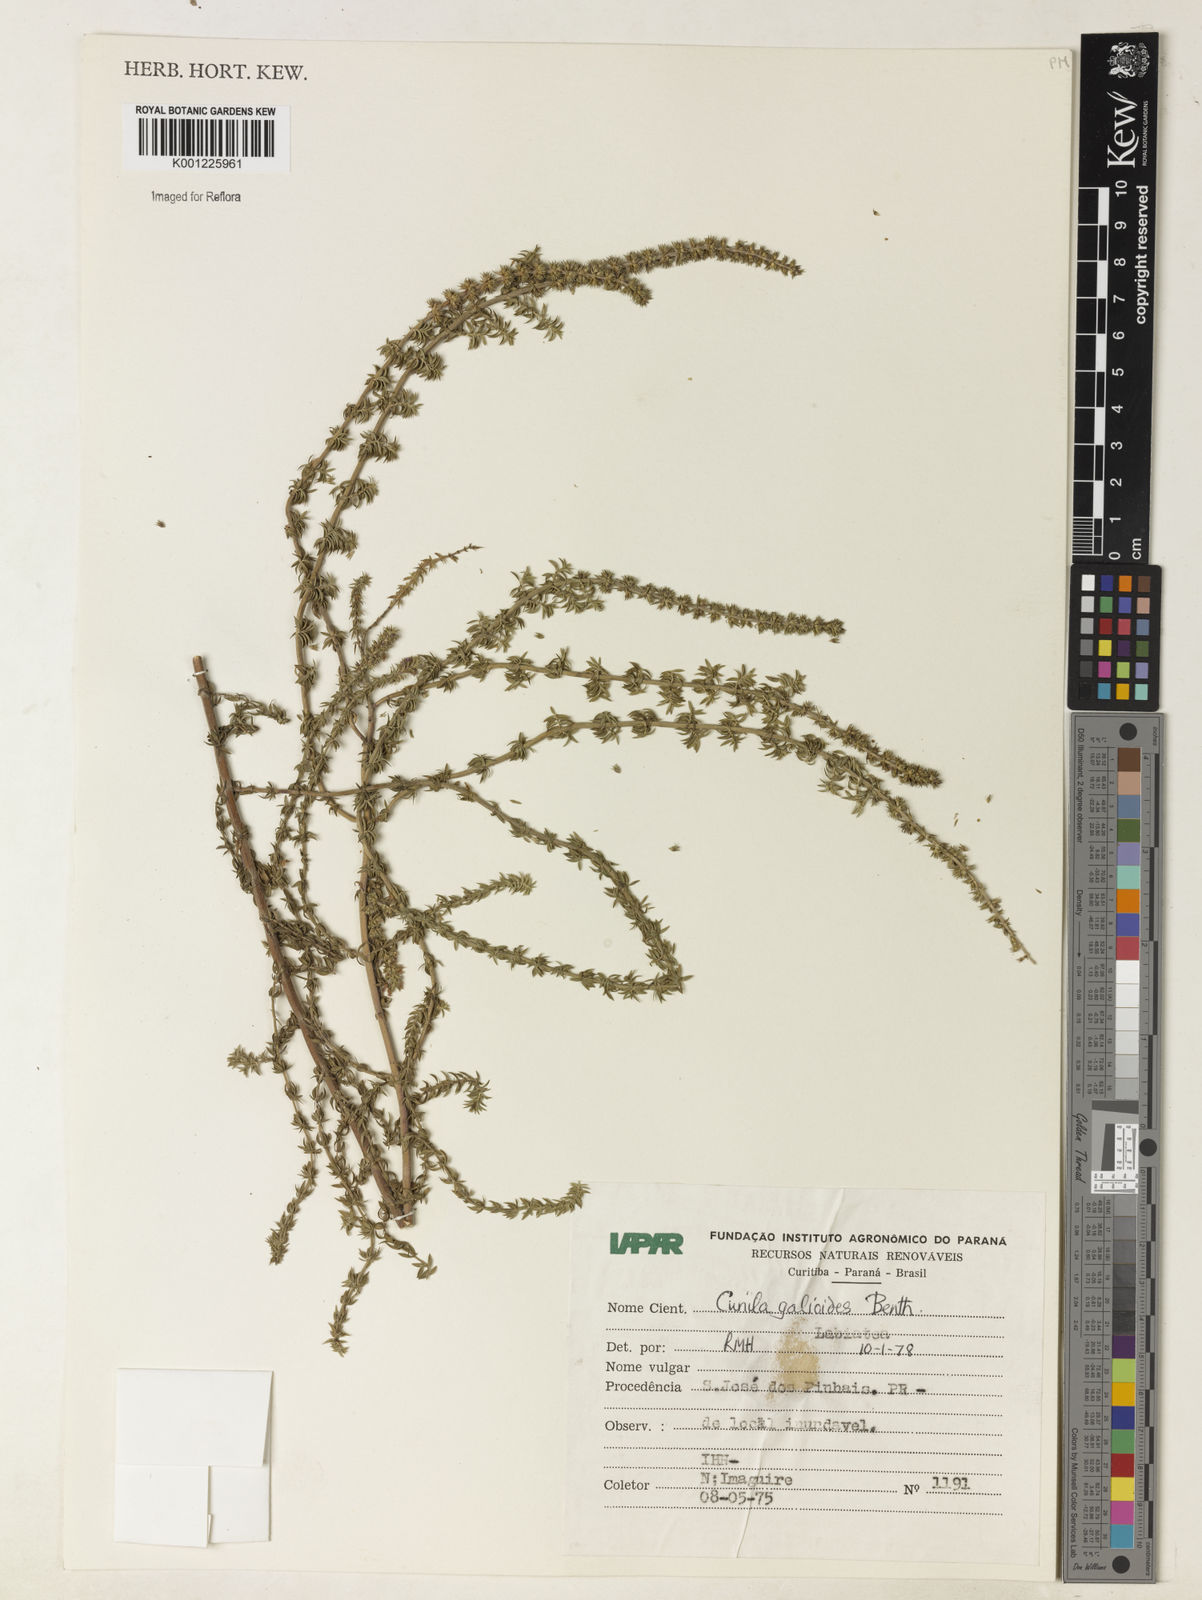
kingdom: Plantae
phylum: Tracheophyta
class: Magnoliopsida
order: Lamiales
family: Lamiaceae
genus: Cunila
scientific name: Cunila galioides
